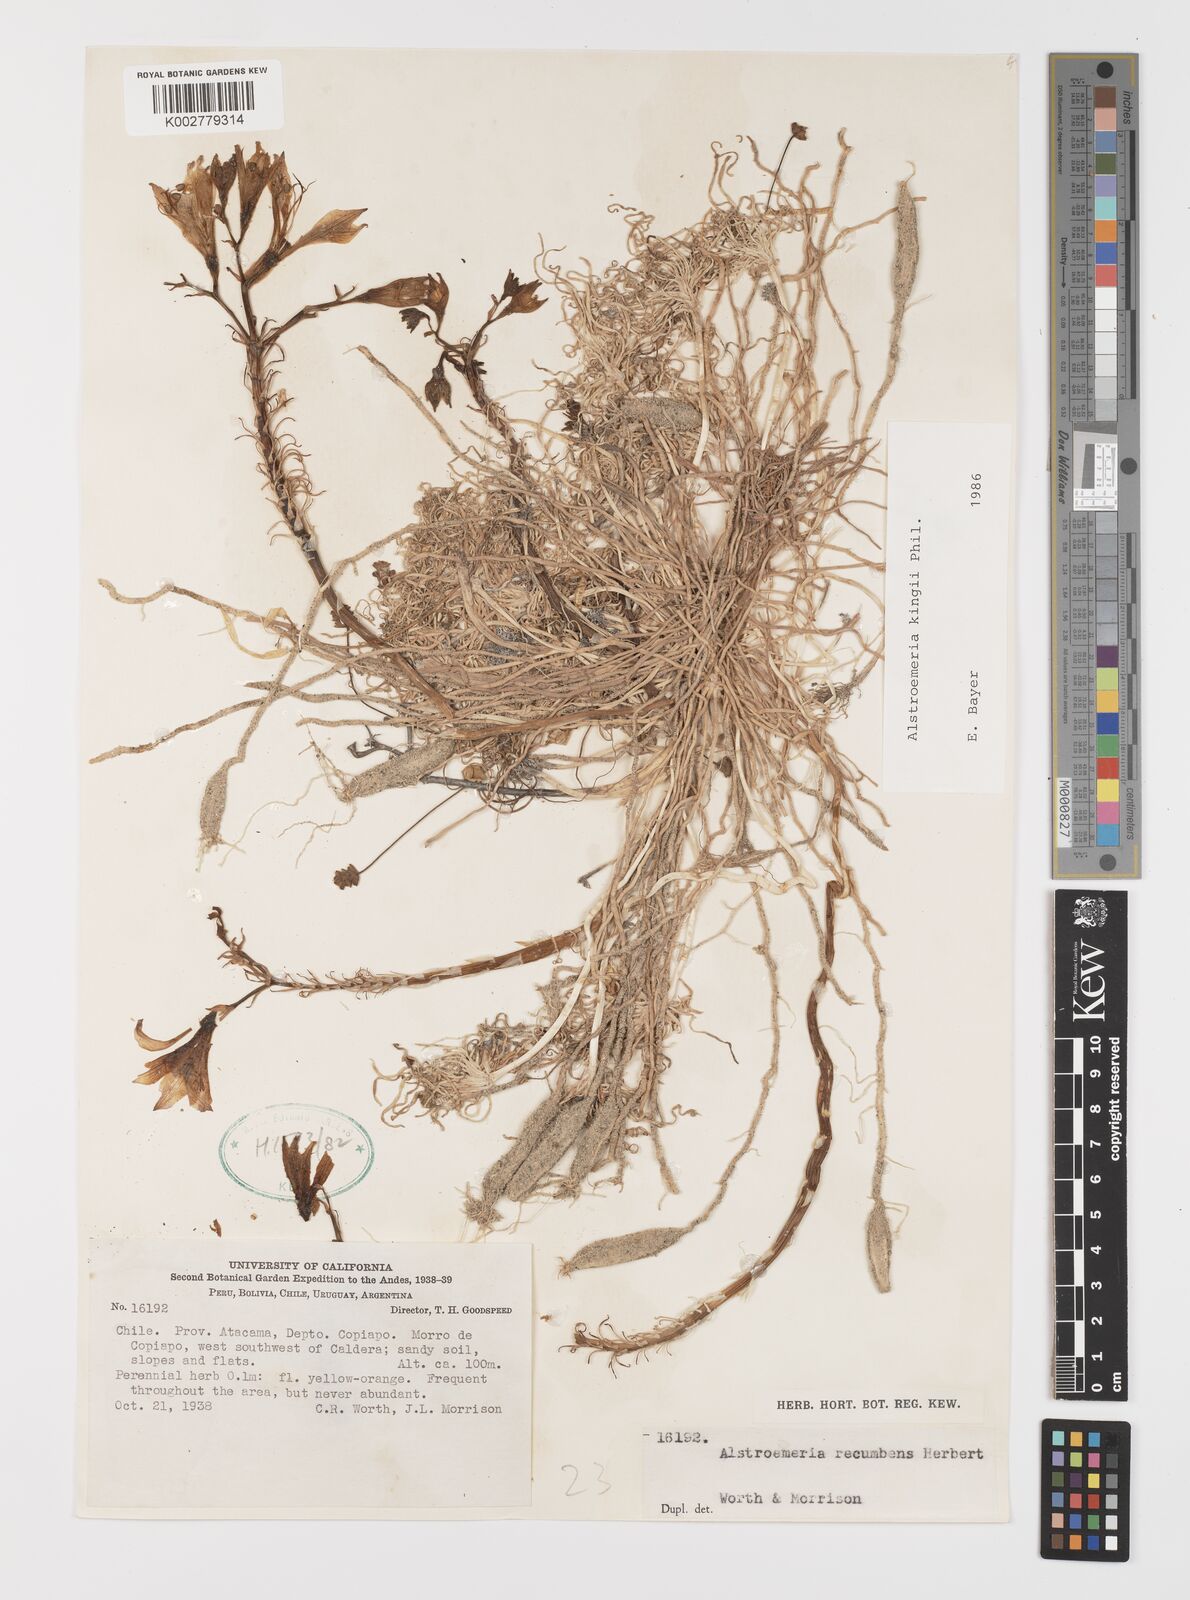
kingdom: Plantae
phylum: Tracheophyta
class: Liliopsida
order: Liliales
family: Alstroemeriaceae
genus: Alstroemeria
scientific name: Alstroemeria kingii
